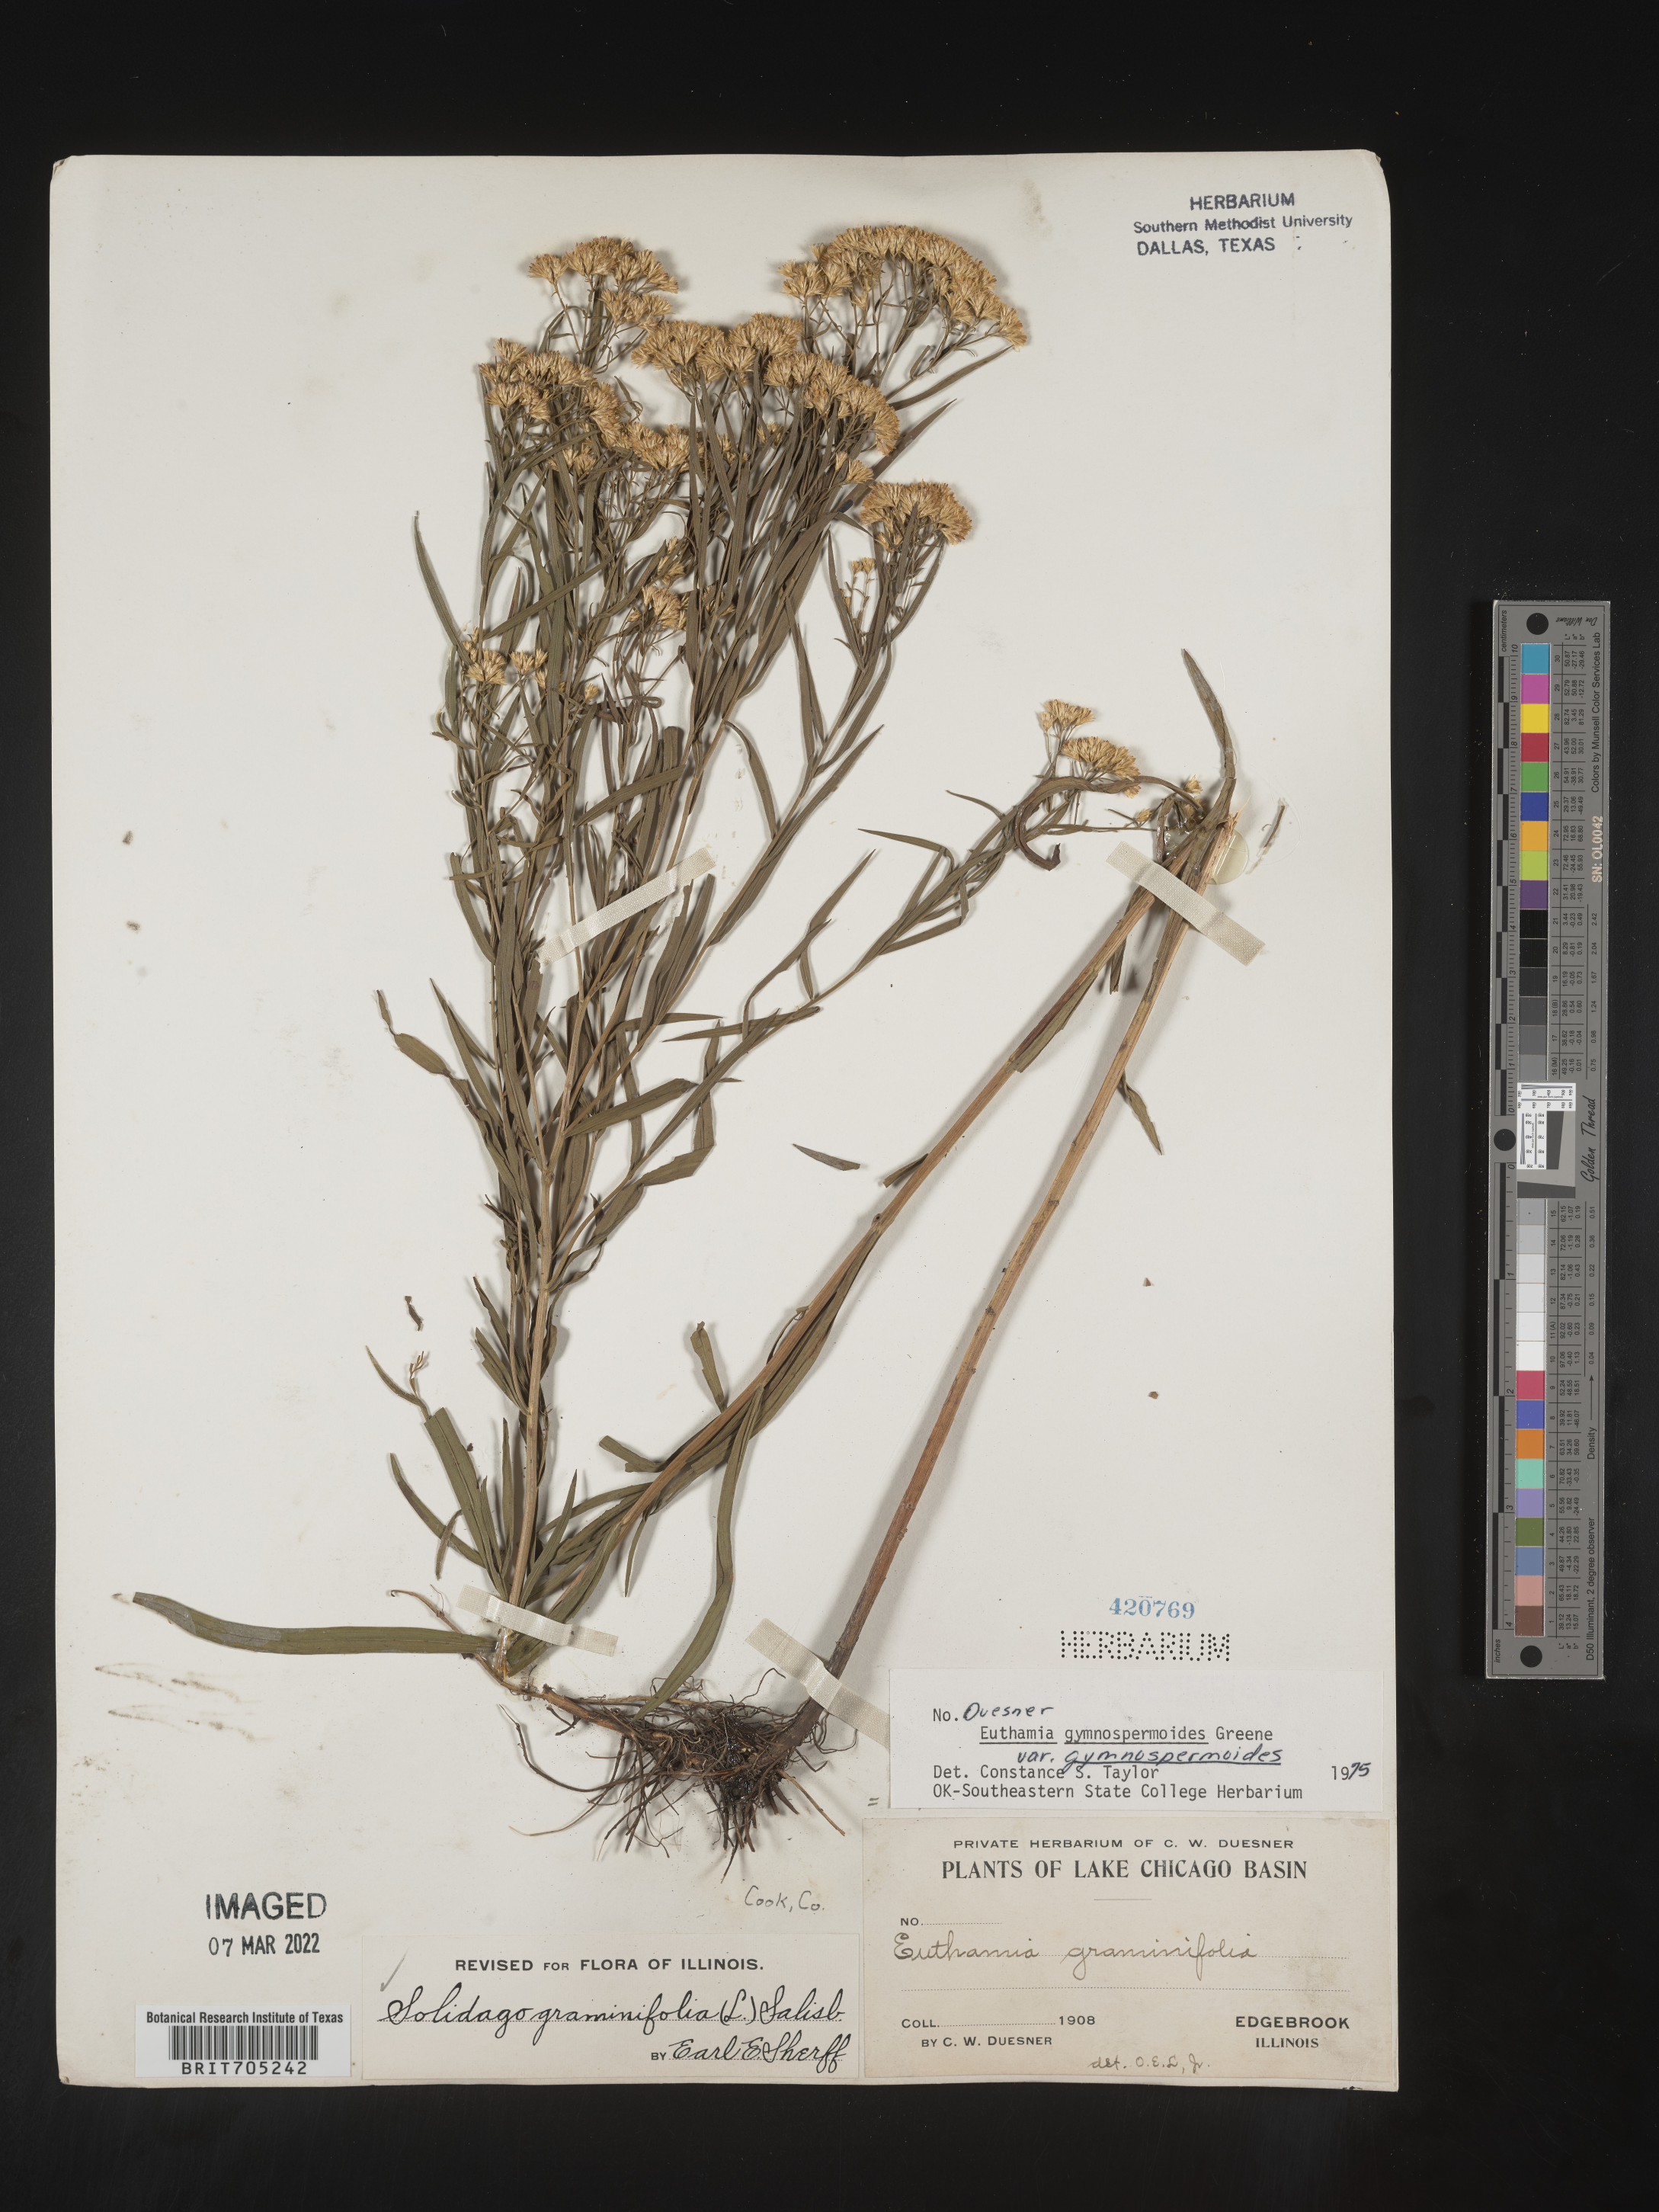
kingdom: Plantae
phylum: Tracheophyta
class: Magnoliopsida
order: Asterales
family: Asteraceae
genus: Euthamia
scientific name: Euthamia gymnospermoides
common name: Great plains goldentop
